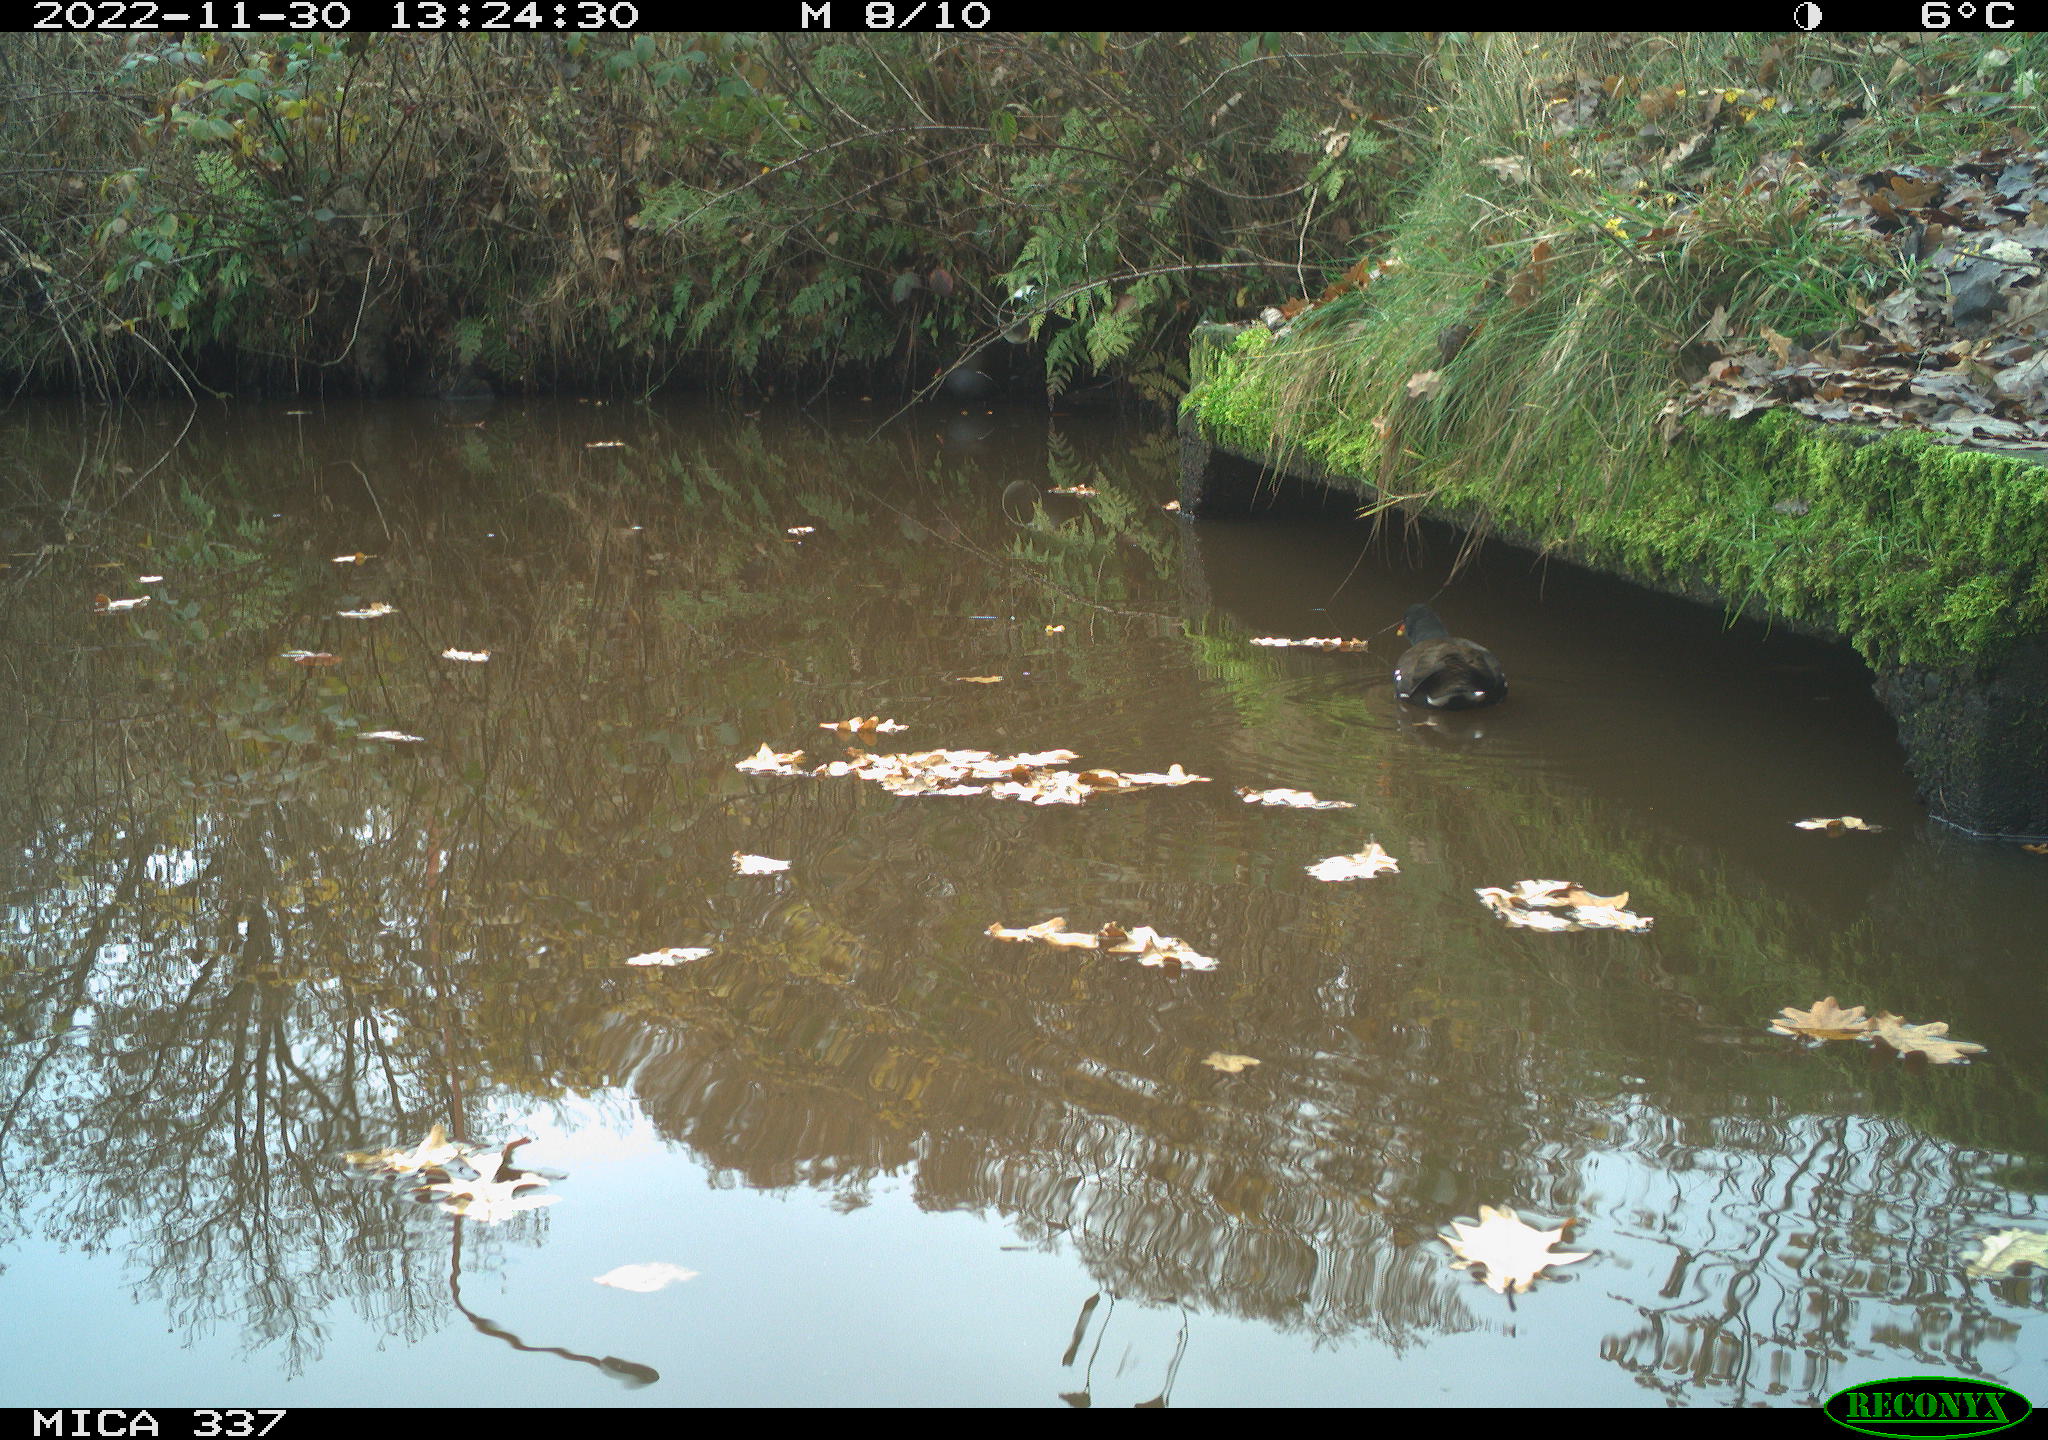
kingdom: Animalia
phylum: Chordata
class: Aves
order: Gruiformes
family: Rallidae
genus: Gallinula
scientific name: Gallinula chloropus
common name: Common moorhen
